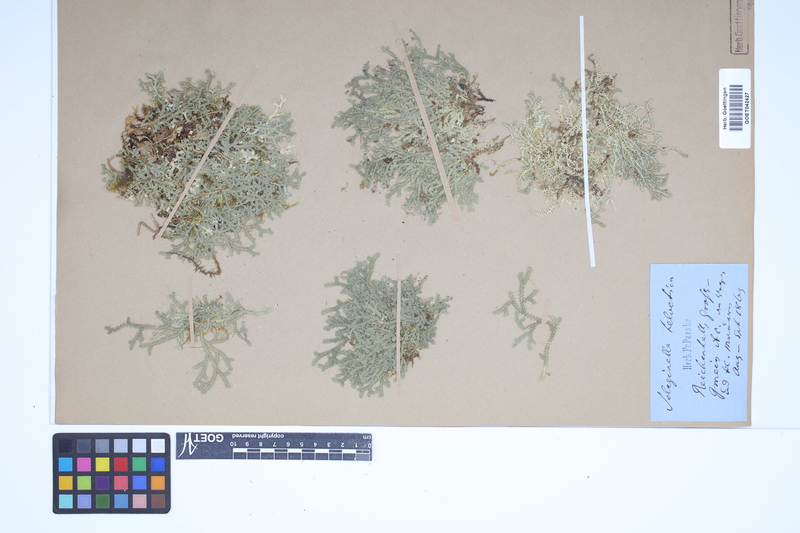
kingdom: Plantae
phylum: Tracheophyta
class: Lycopodiopsida
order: Selaginellales
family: Selaginellaceae
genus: Selaginella
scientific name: Selaginella helvetica
